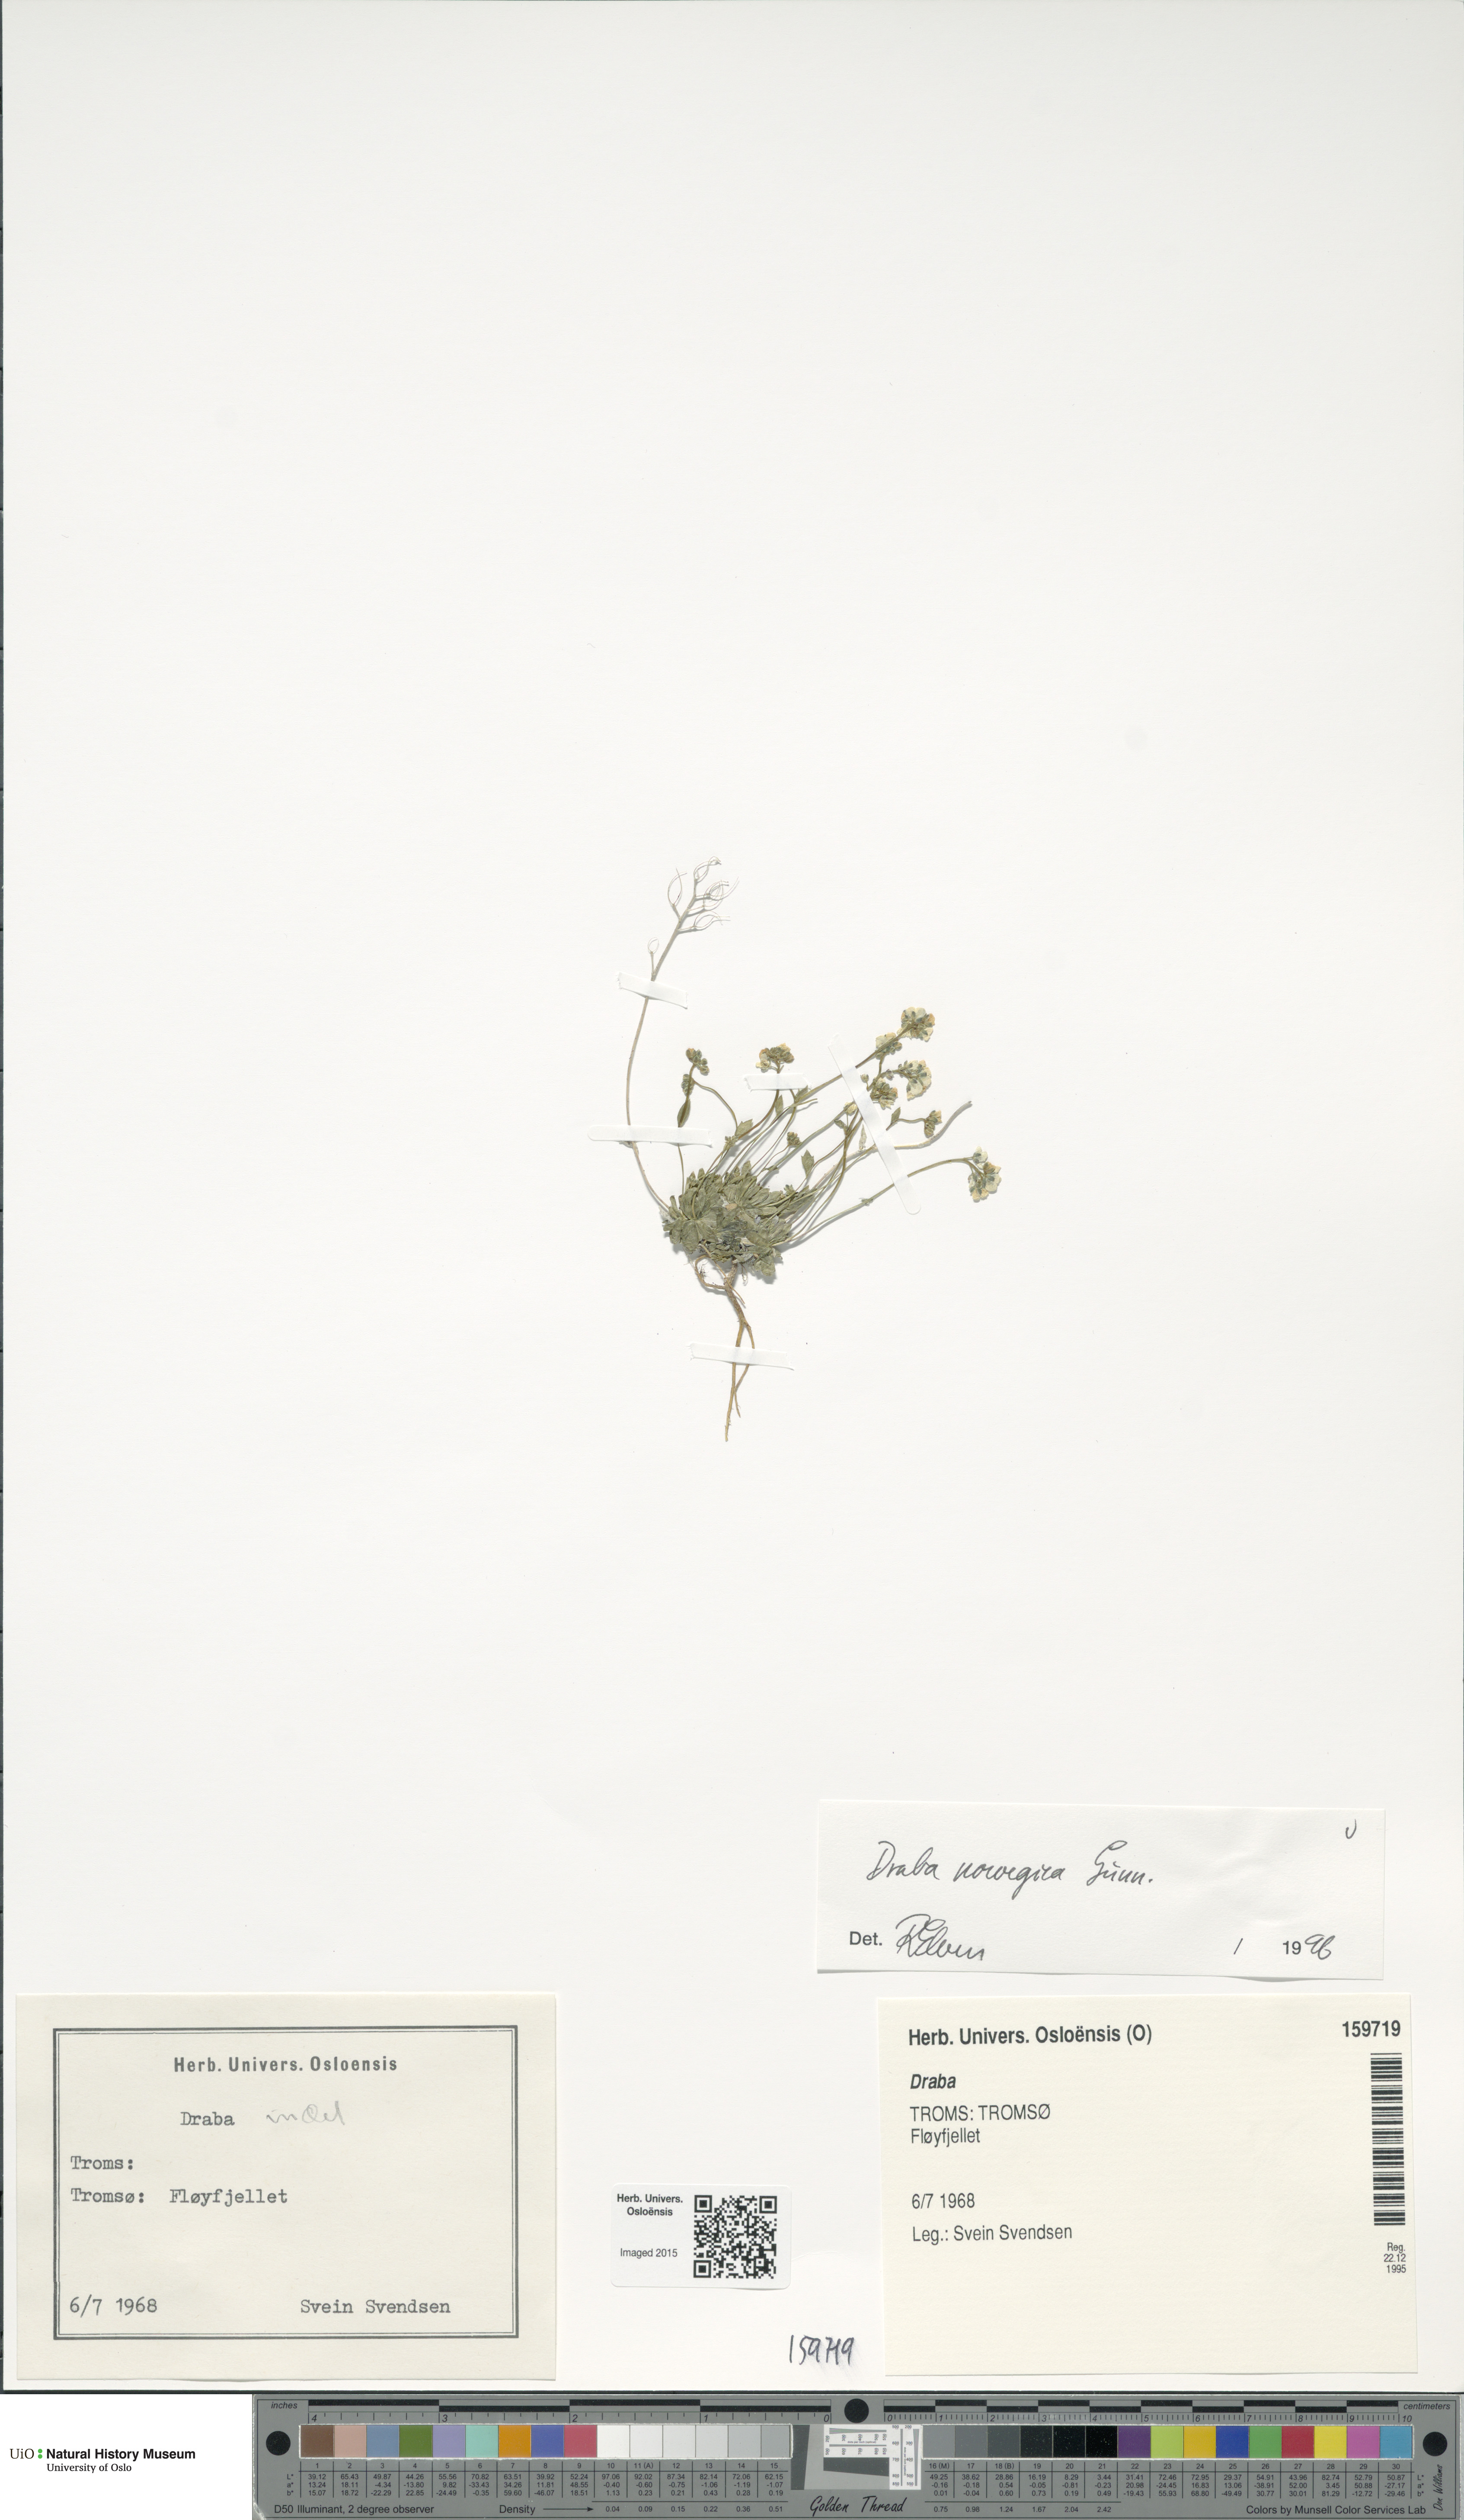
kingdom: Plantae
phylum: Tracheophyta
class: Magnoliopsida
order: Brassicales
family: Brassicaceae
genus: Draba
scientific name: Draba norvegica
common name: Rock whitlowgrass
